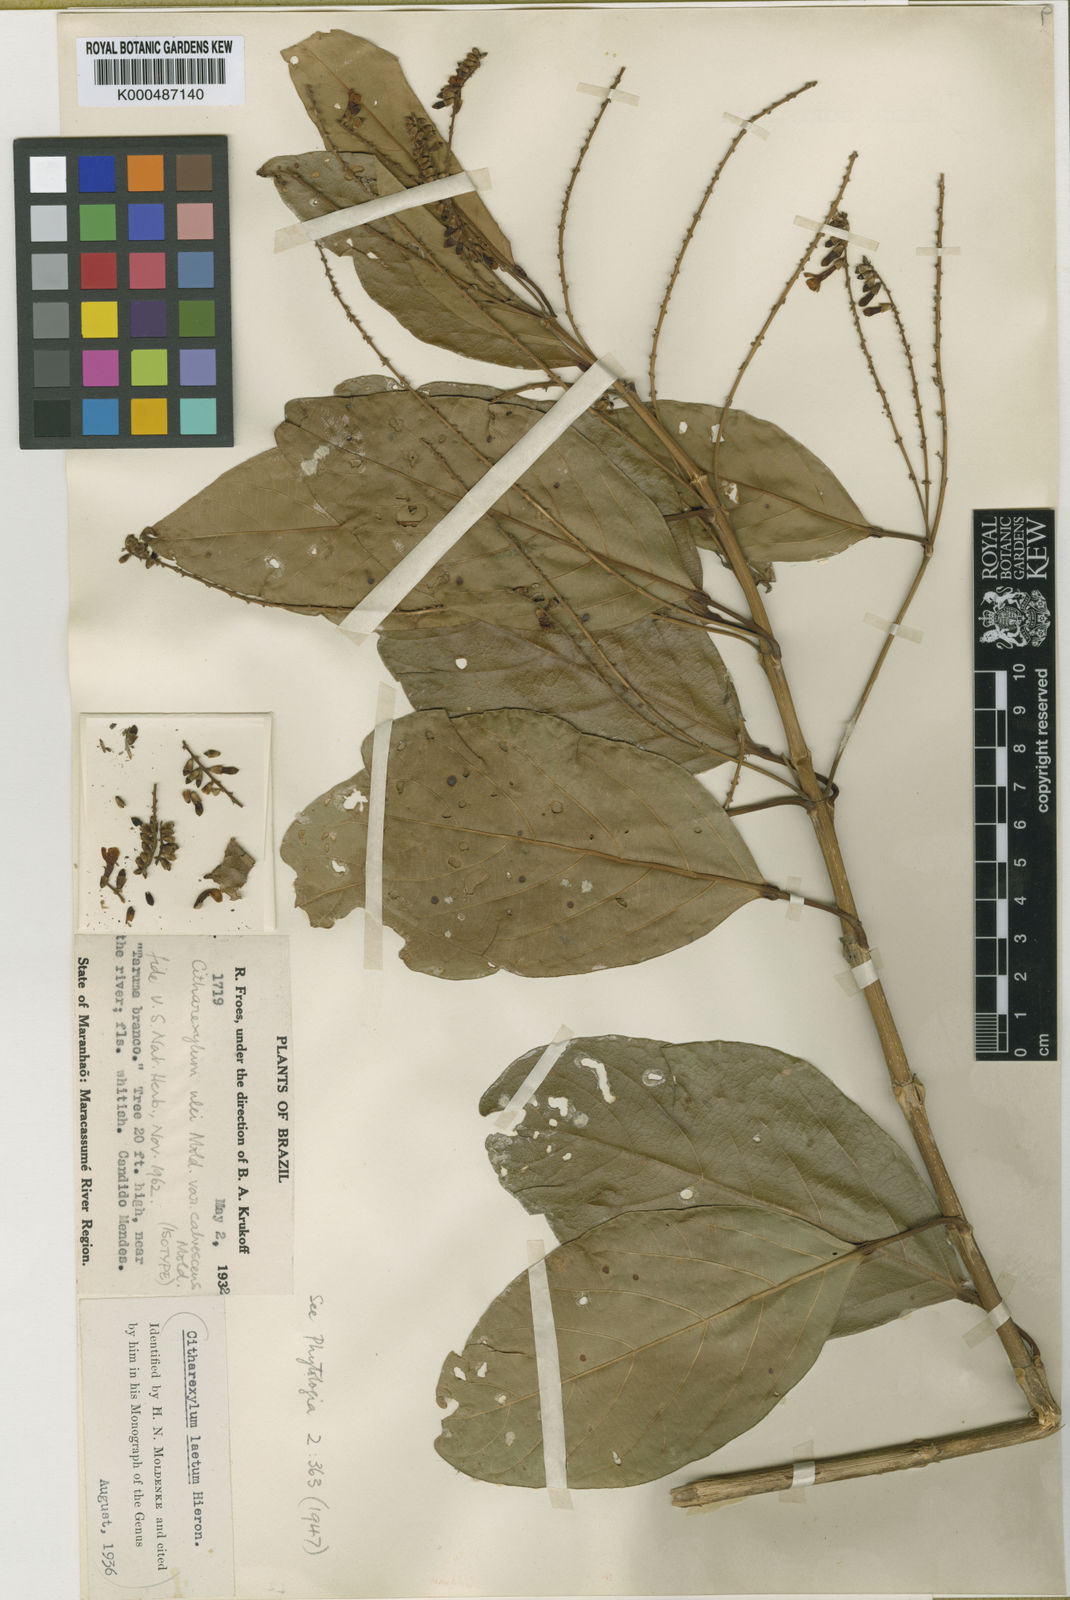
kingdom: Plantae
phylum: Tracheophyta
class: Magnoliopsida
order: Lamiales
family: Verbenaceae
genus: Citharexylum
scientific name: Citharexylum ulei
